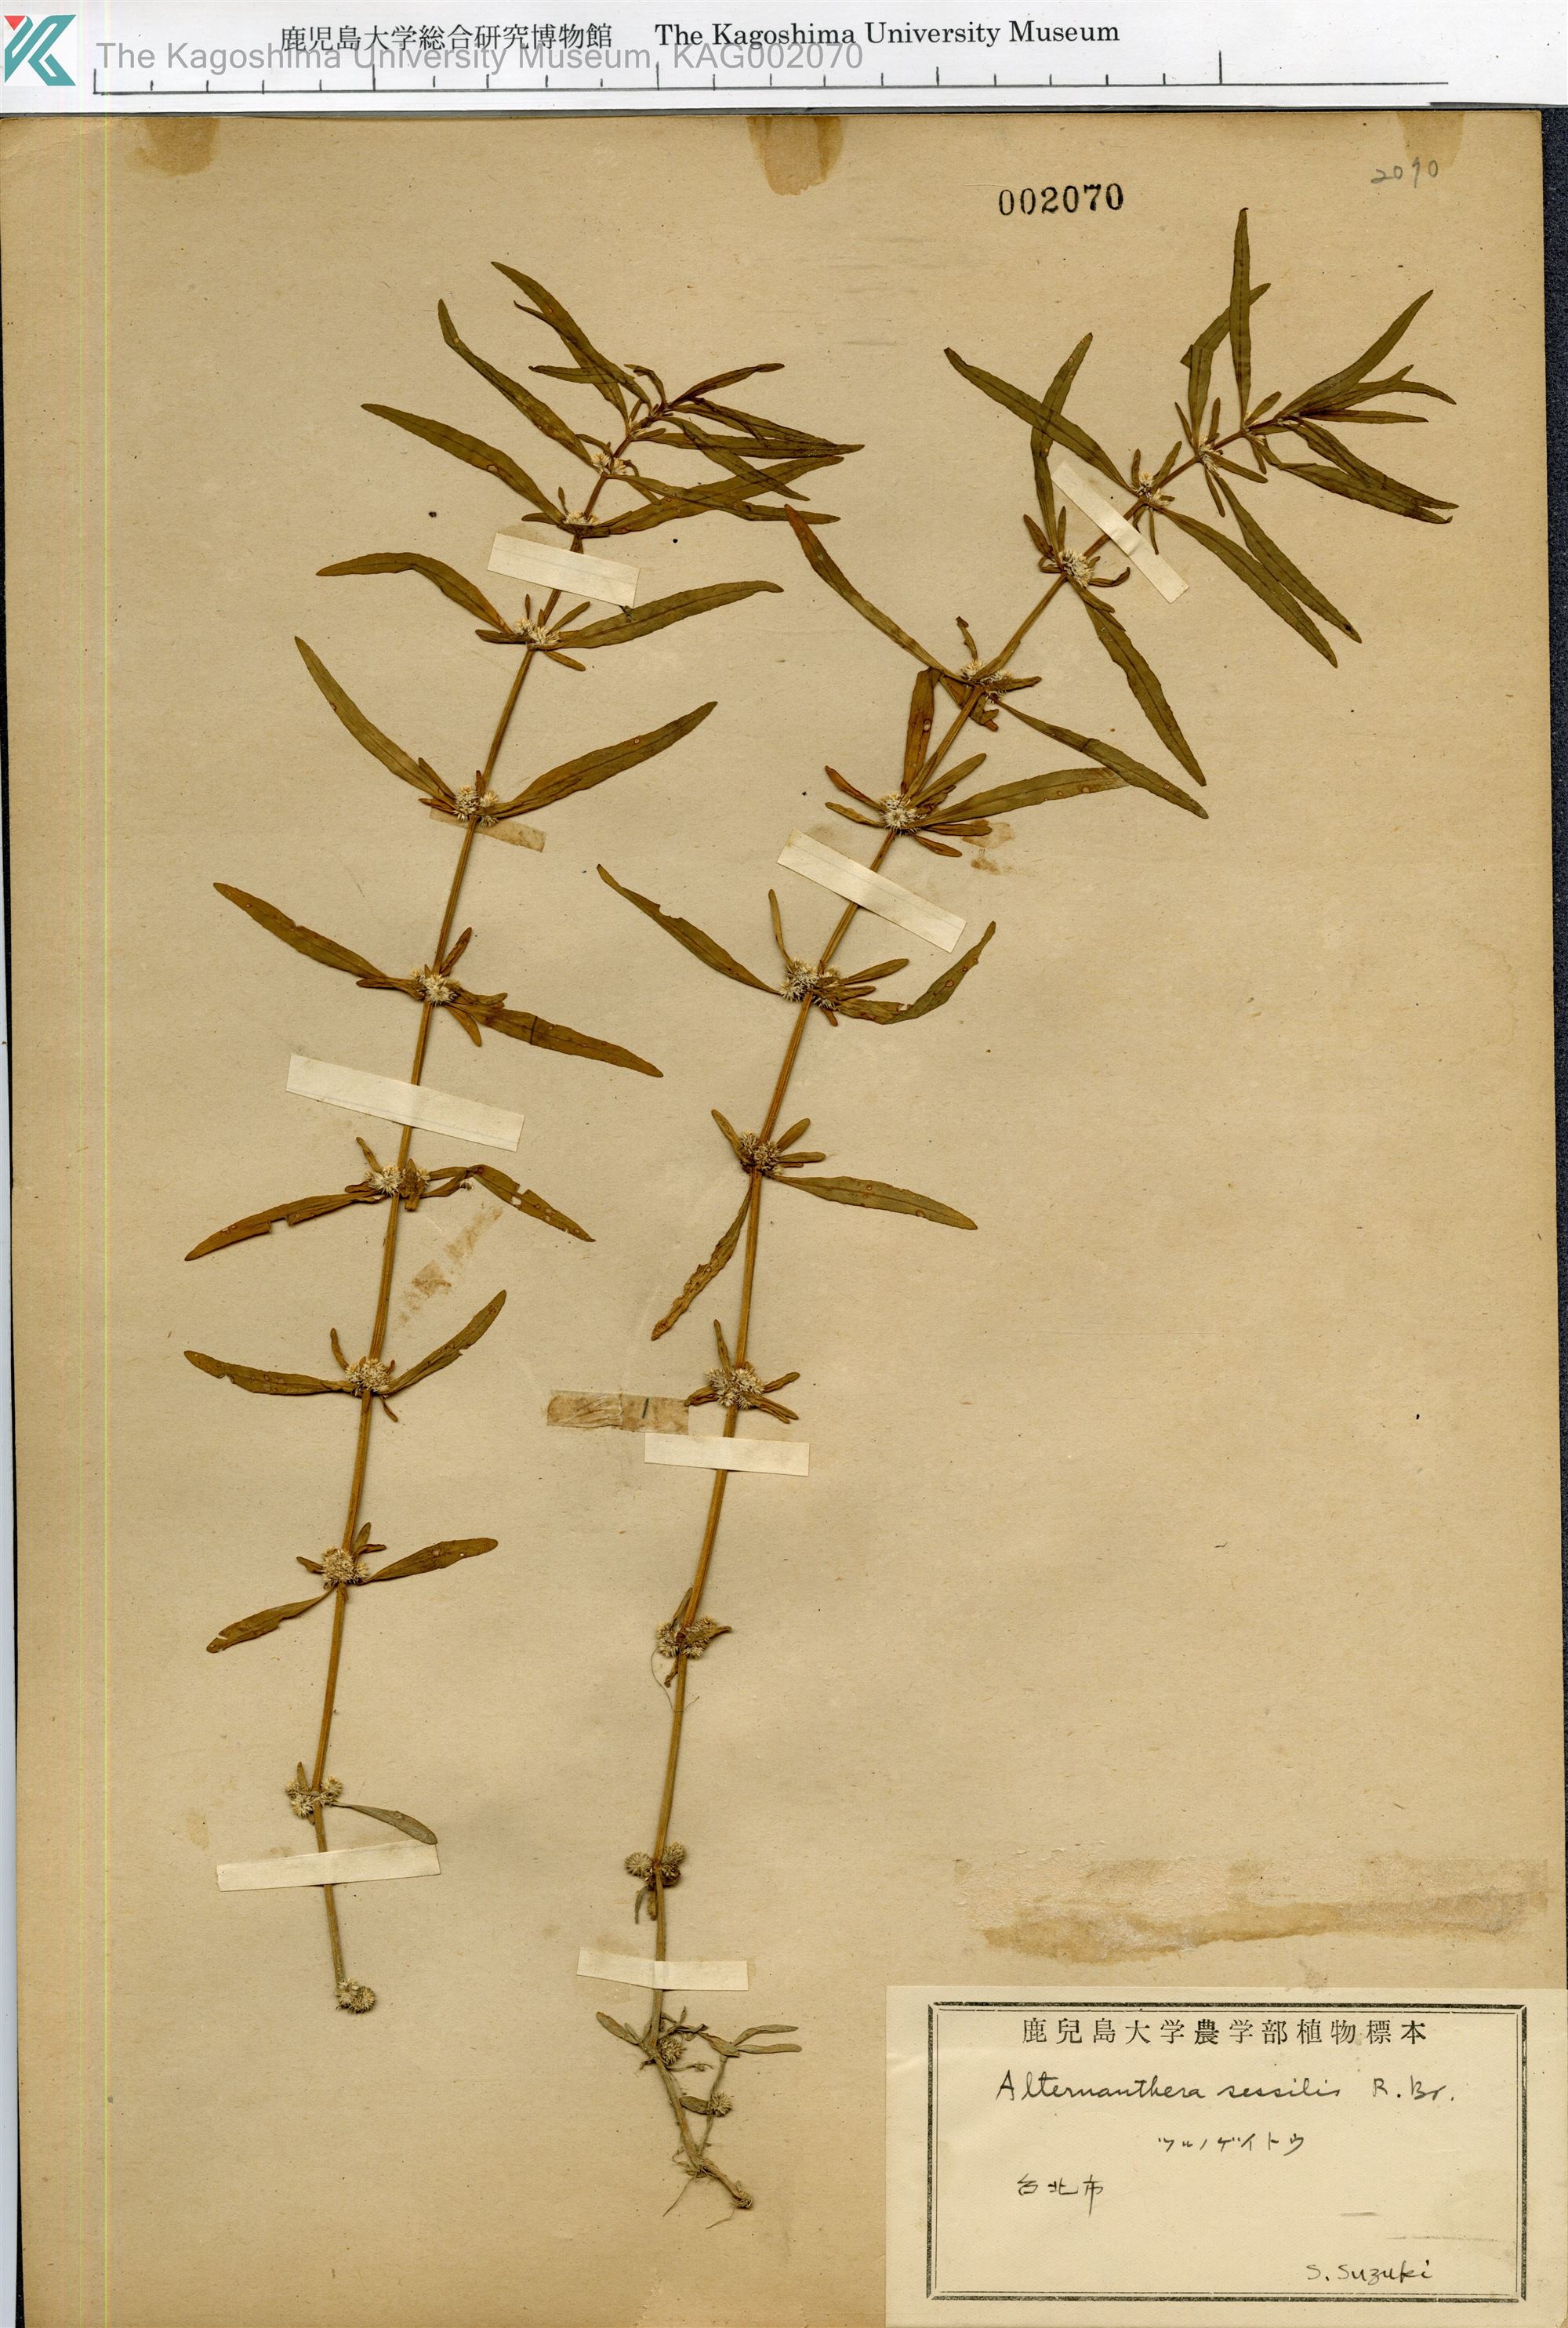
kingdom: Plantae
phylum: Tracheophyta
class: Magnoliopsida
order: Caryophyllales
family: Amaranthaceae
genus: Alternanthera
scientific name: Alternanthera sessilis
